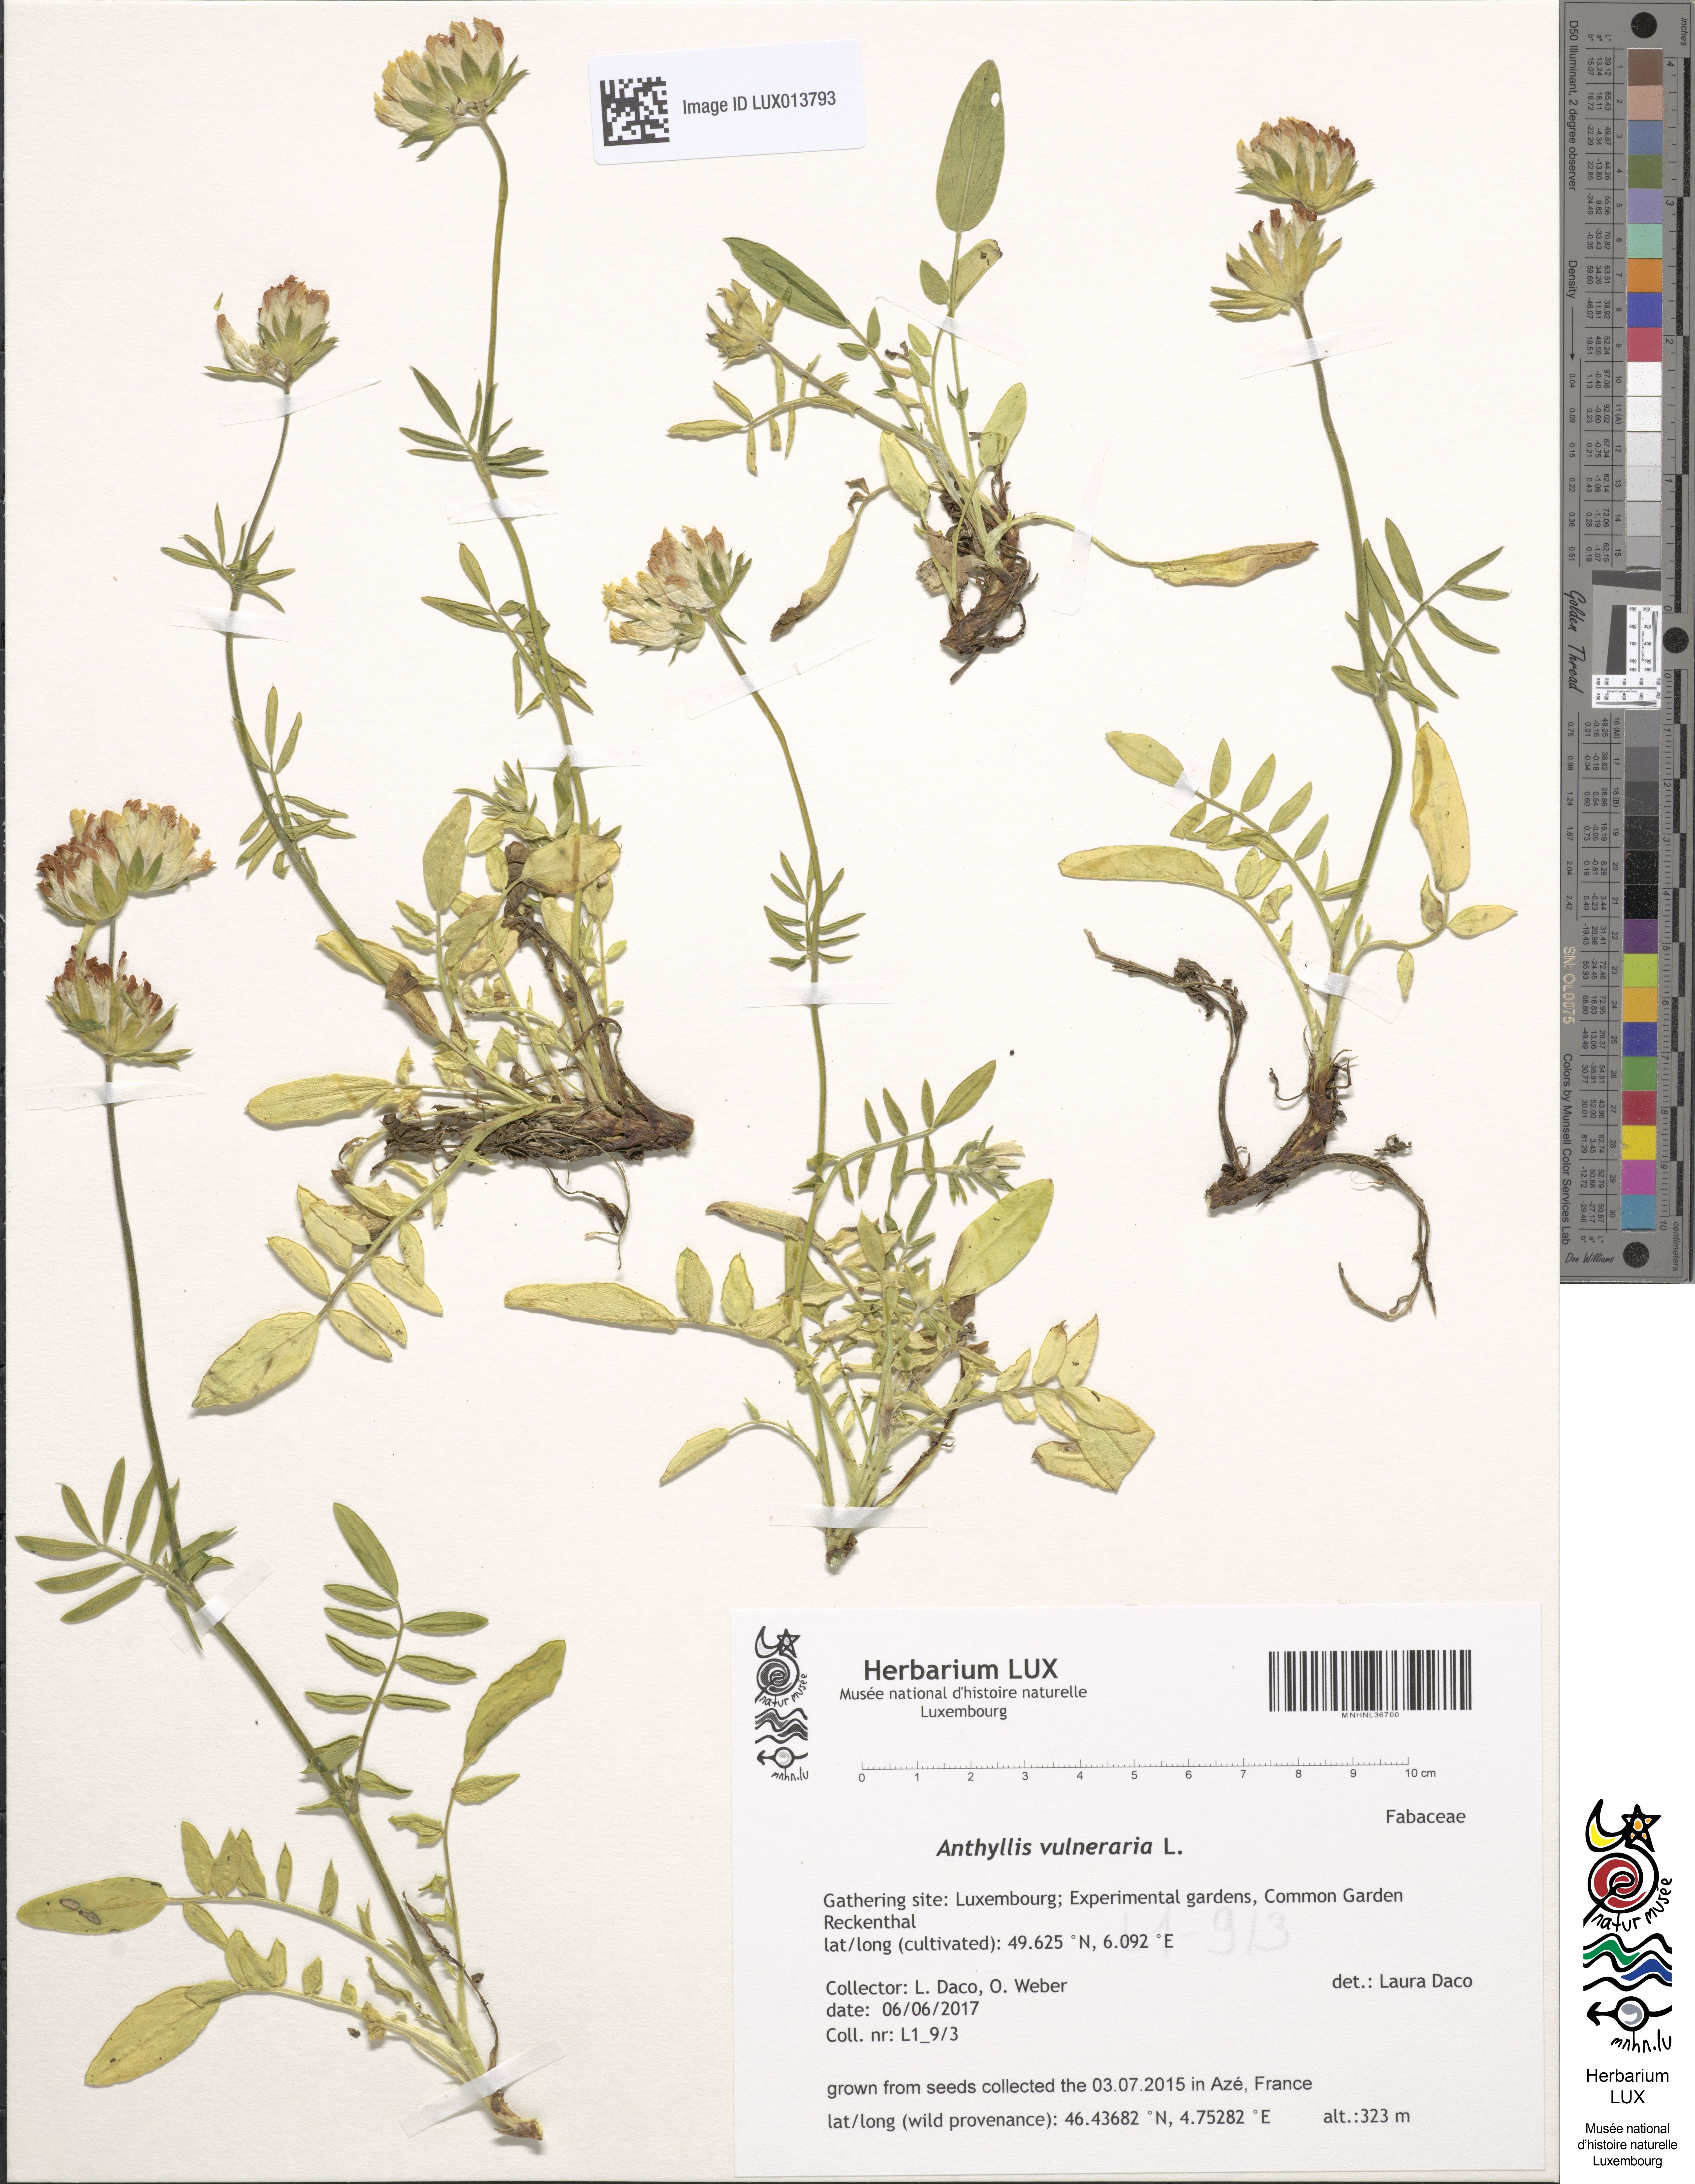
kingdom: Plantae
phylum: Tracheophyta
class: Magnoliopsida
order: Fabales
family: Fabaceae
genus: Anthyllis
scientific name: Anthyllis vulneraria
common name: Kidney vetch
